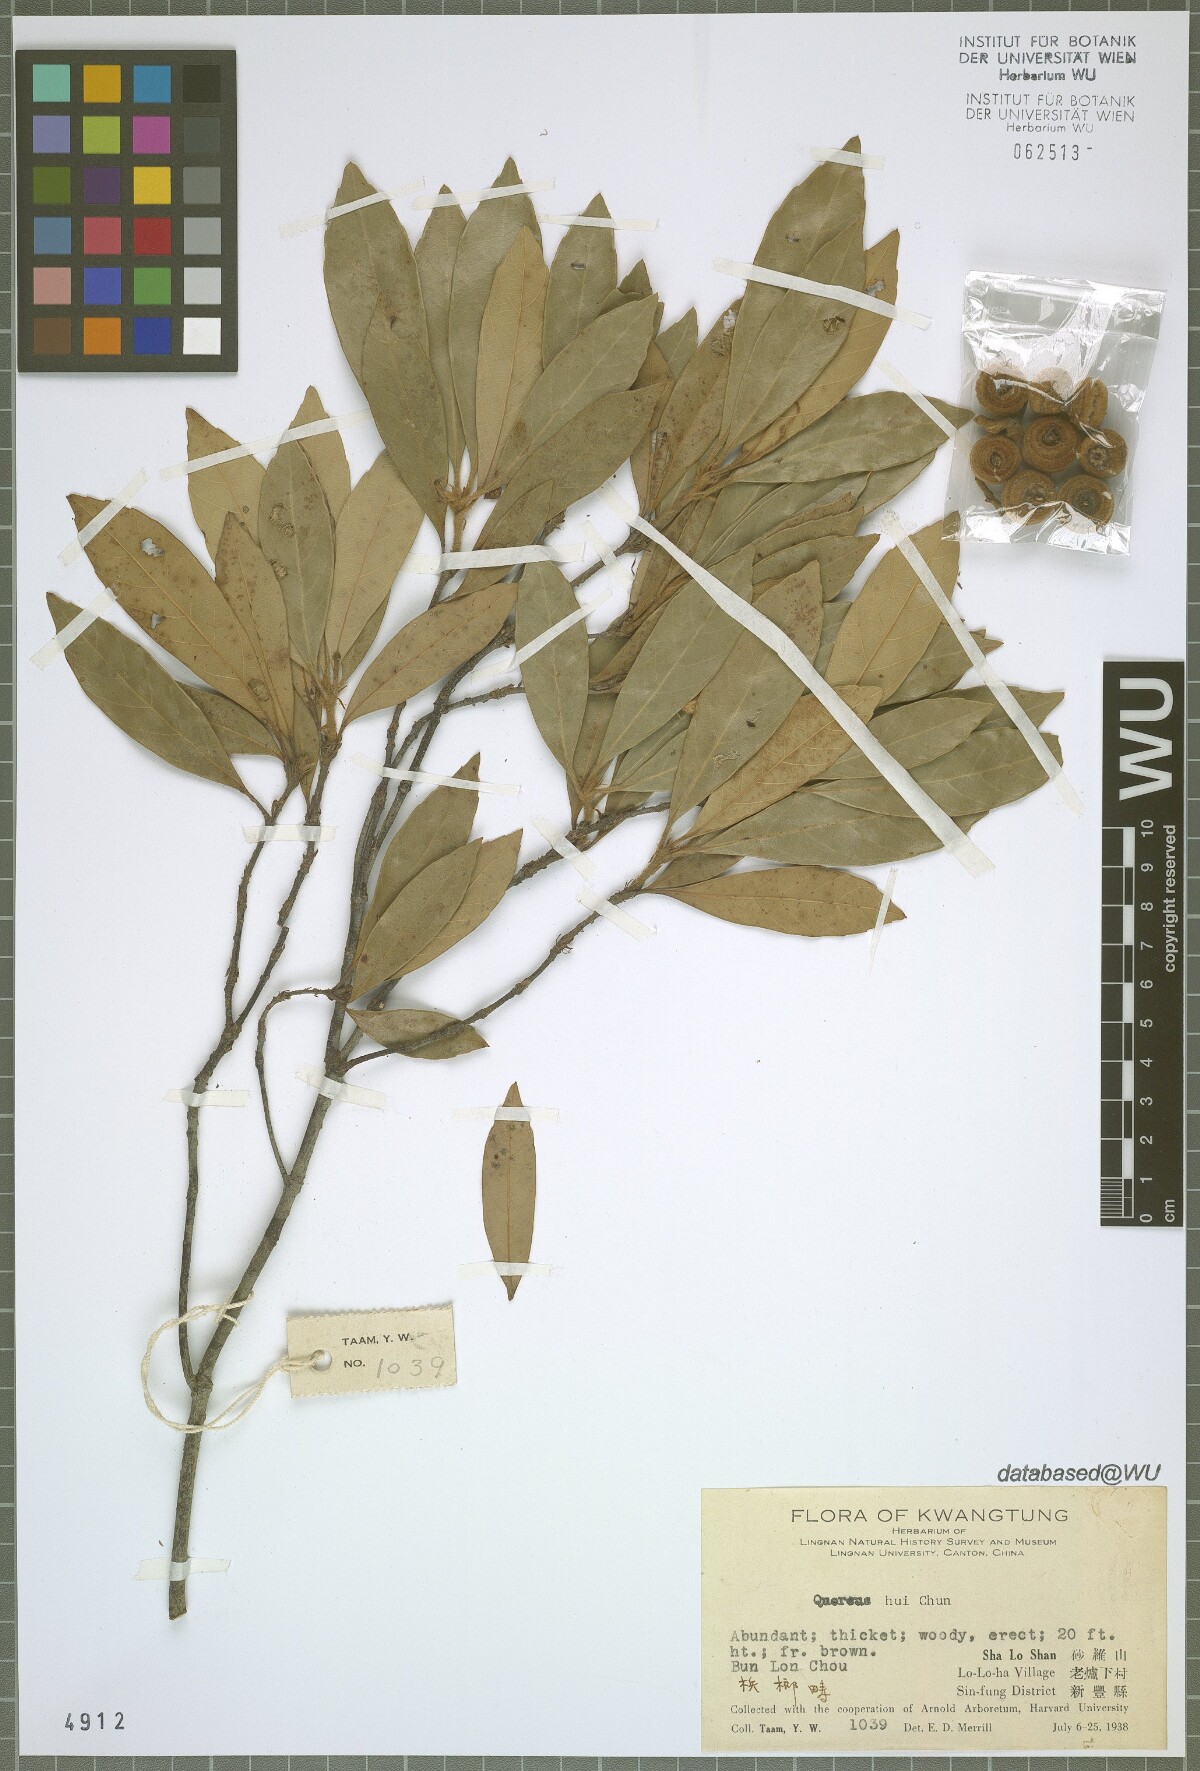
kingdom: Plantae
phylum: Tracheophyta
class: Magnoliopsida
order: Fagales
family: Fagaceae
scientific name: Fagaceae
